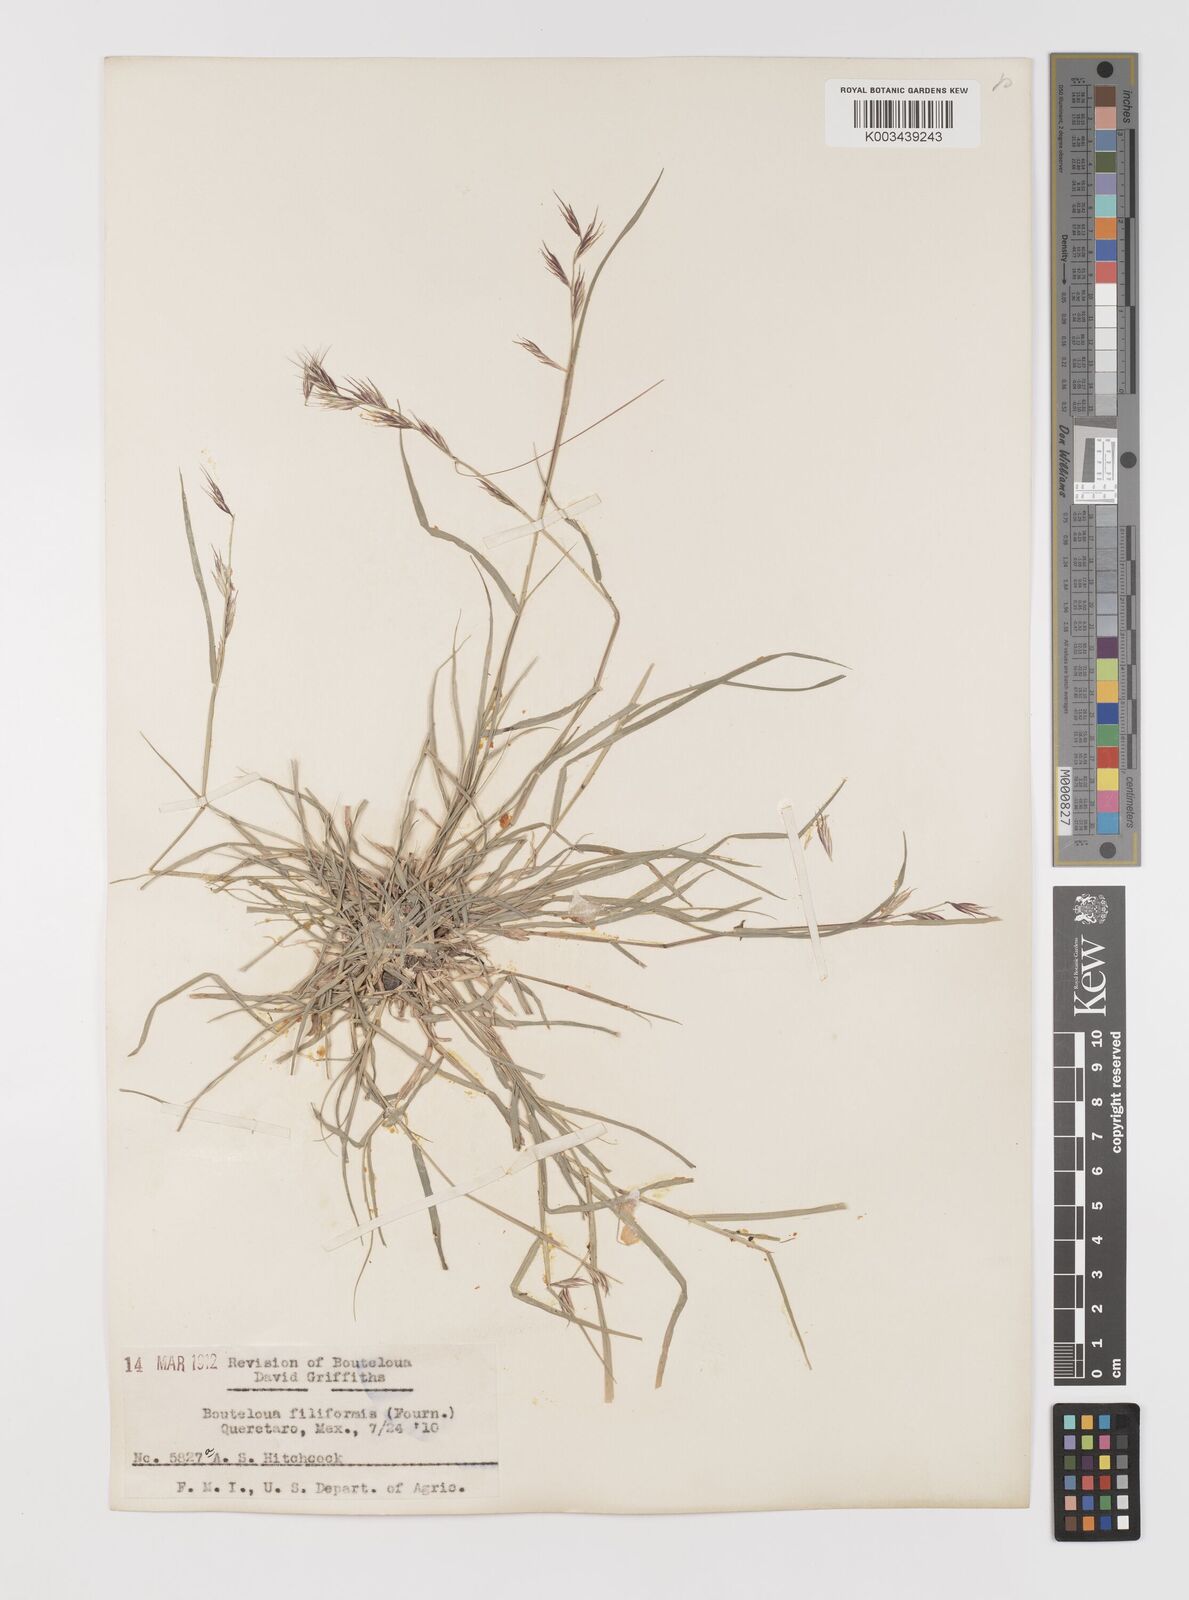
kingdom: Plantae
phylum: Tracheophyta
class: Liliopsida
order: Poales
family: Poaceae
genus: Bouteloua
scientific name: Bouteloua repens
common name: Slender grama
